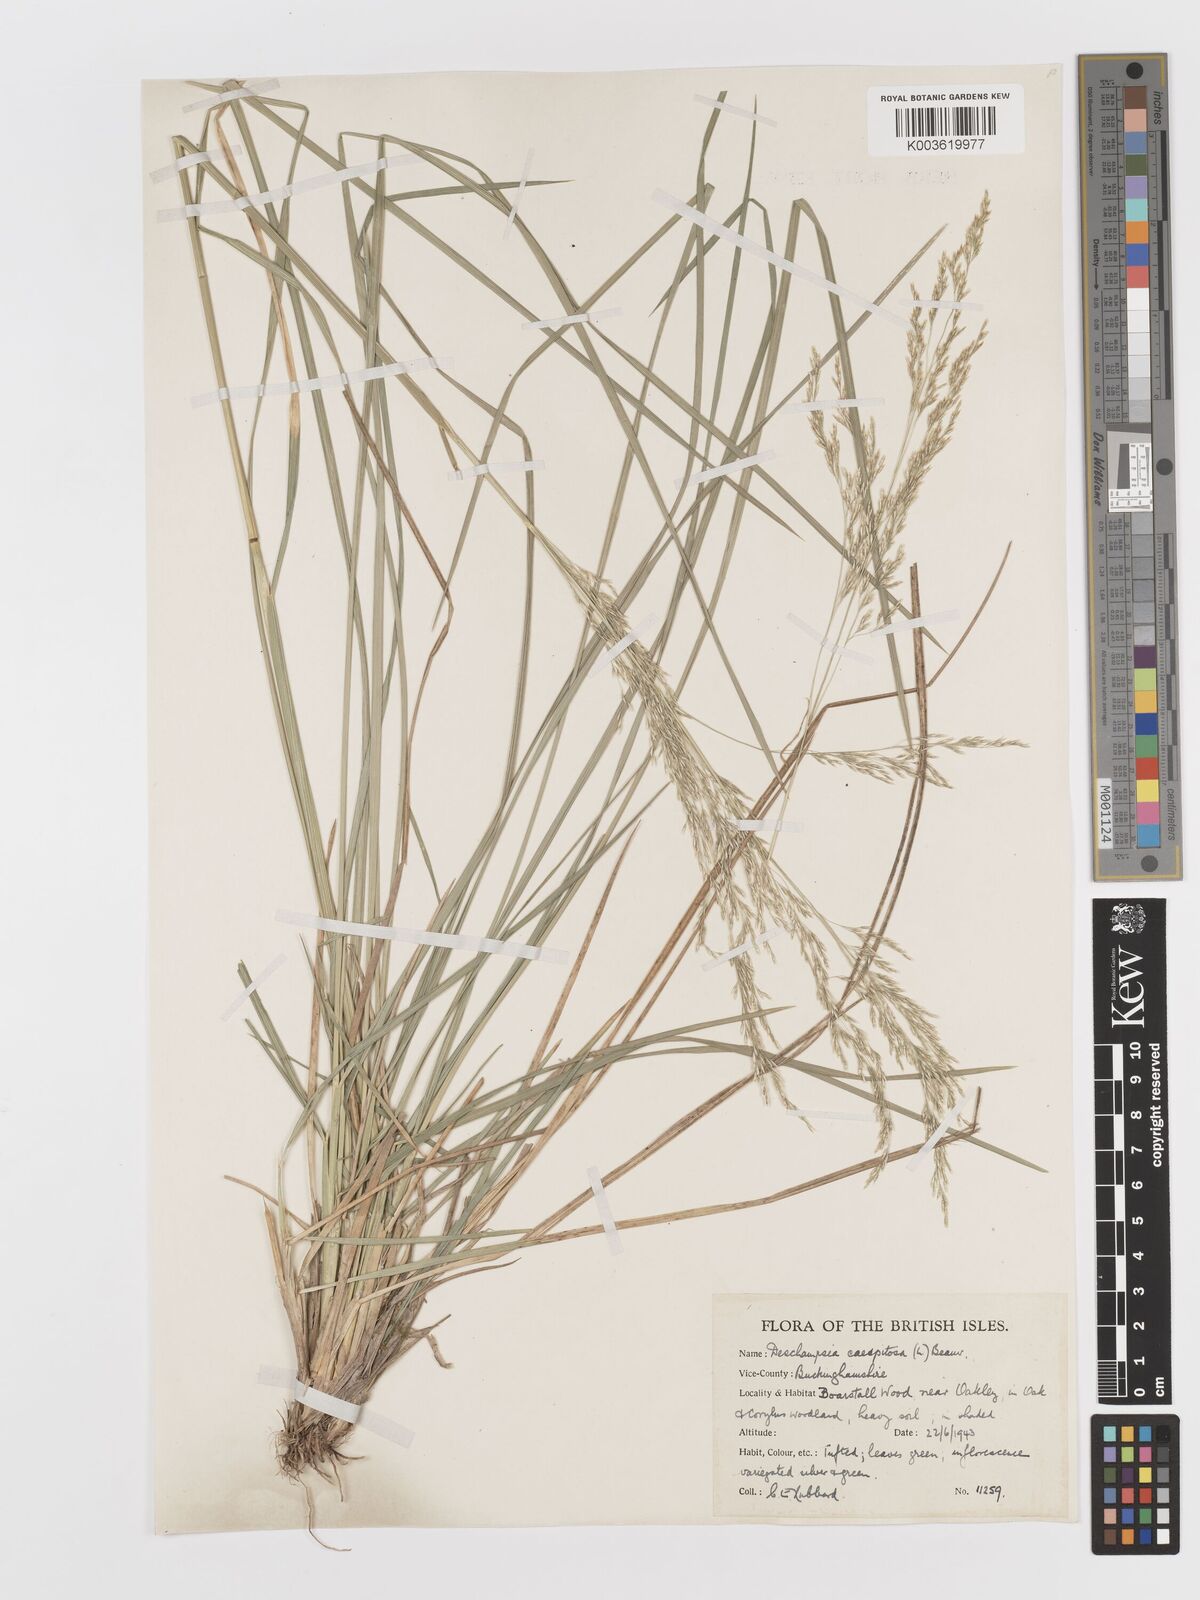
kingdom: Plantae
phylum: Tracheophyta
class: Liliopsida
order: Poales
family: Poaceae
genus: Deschampsia
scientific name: Deschampsia cespitosa
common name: Tufted hair-grass
